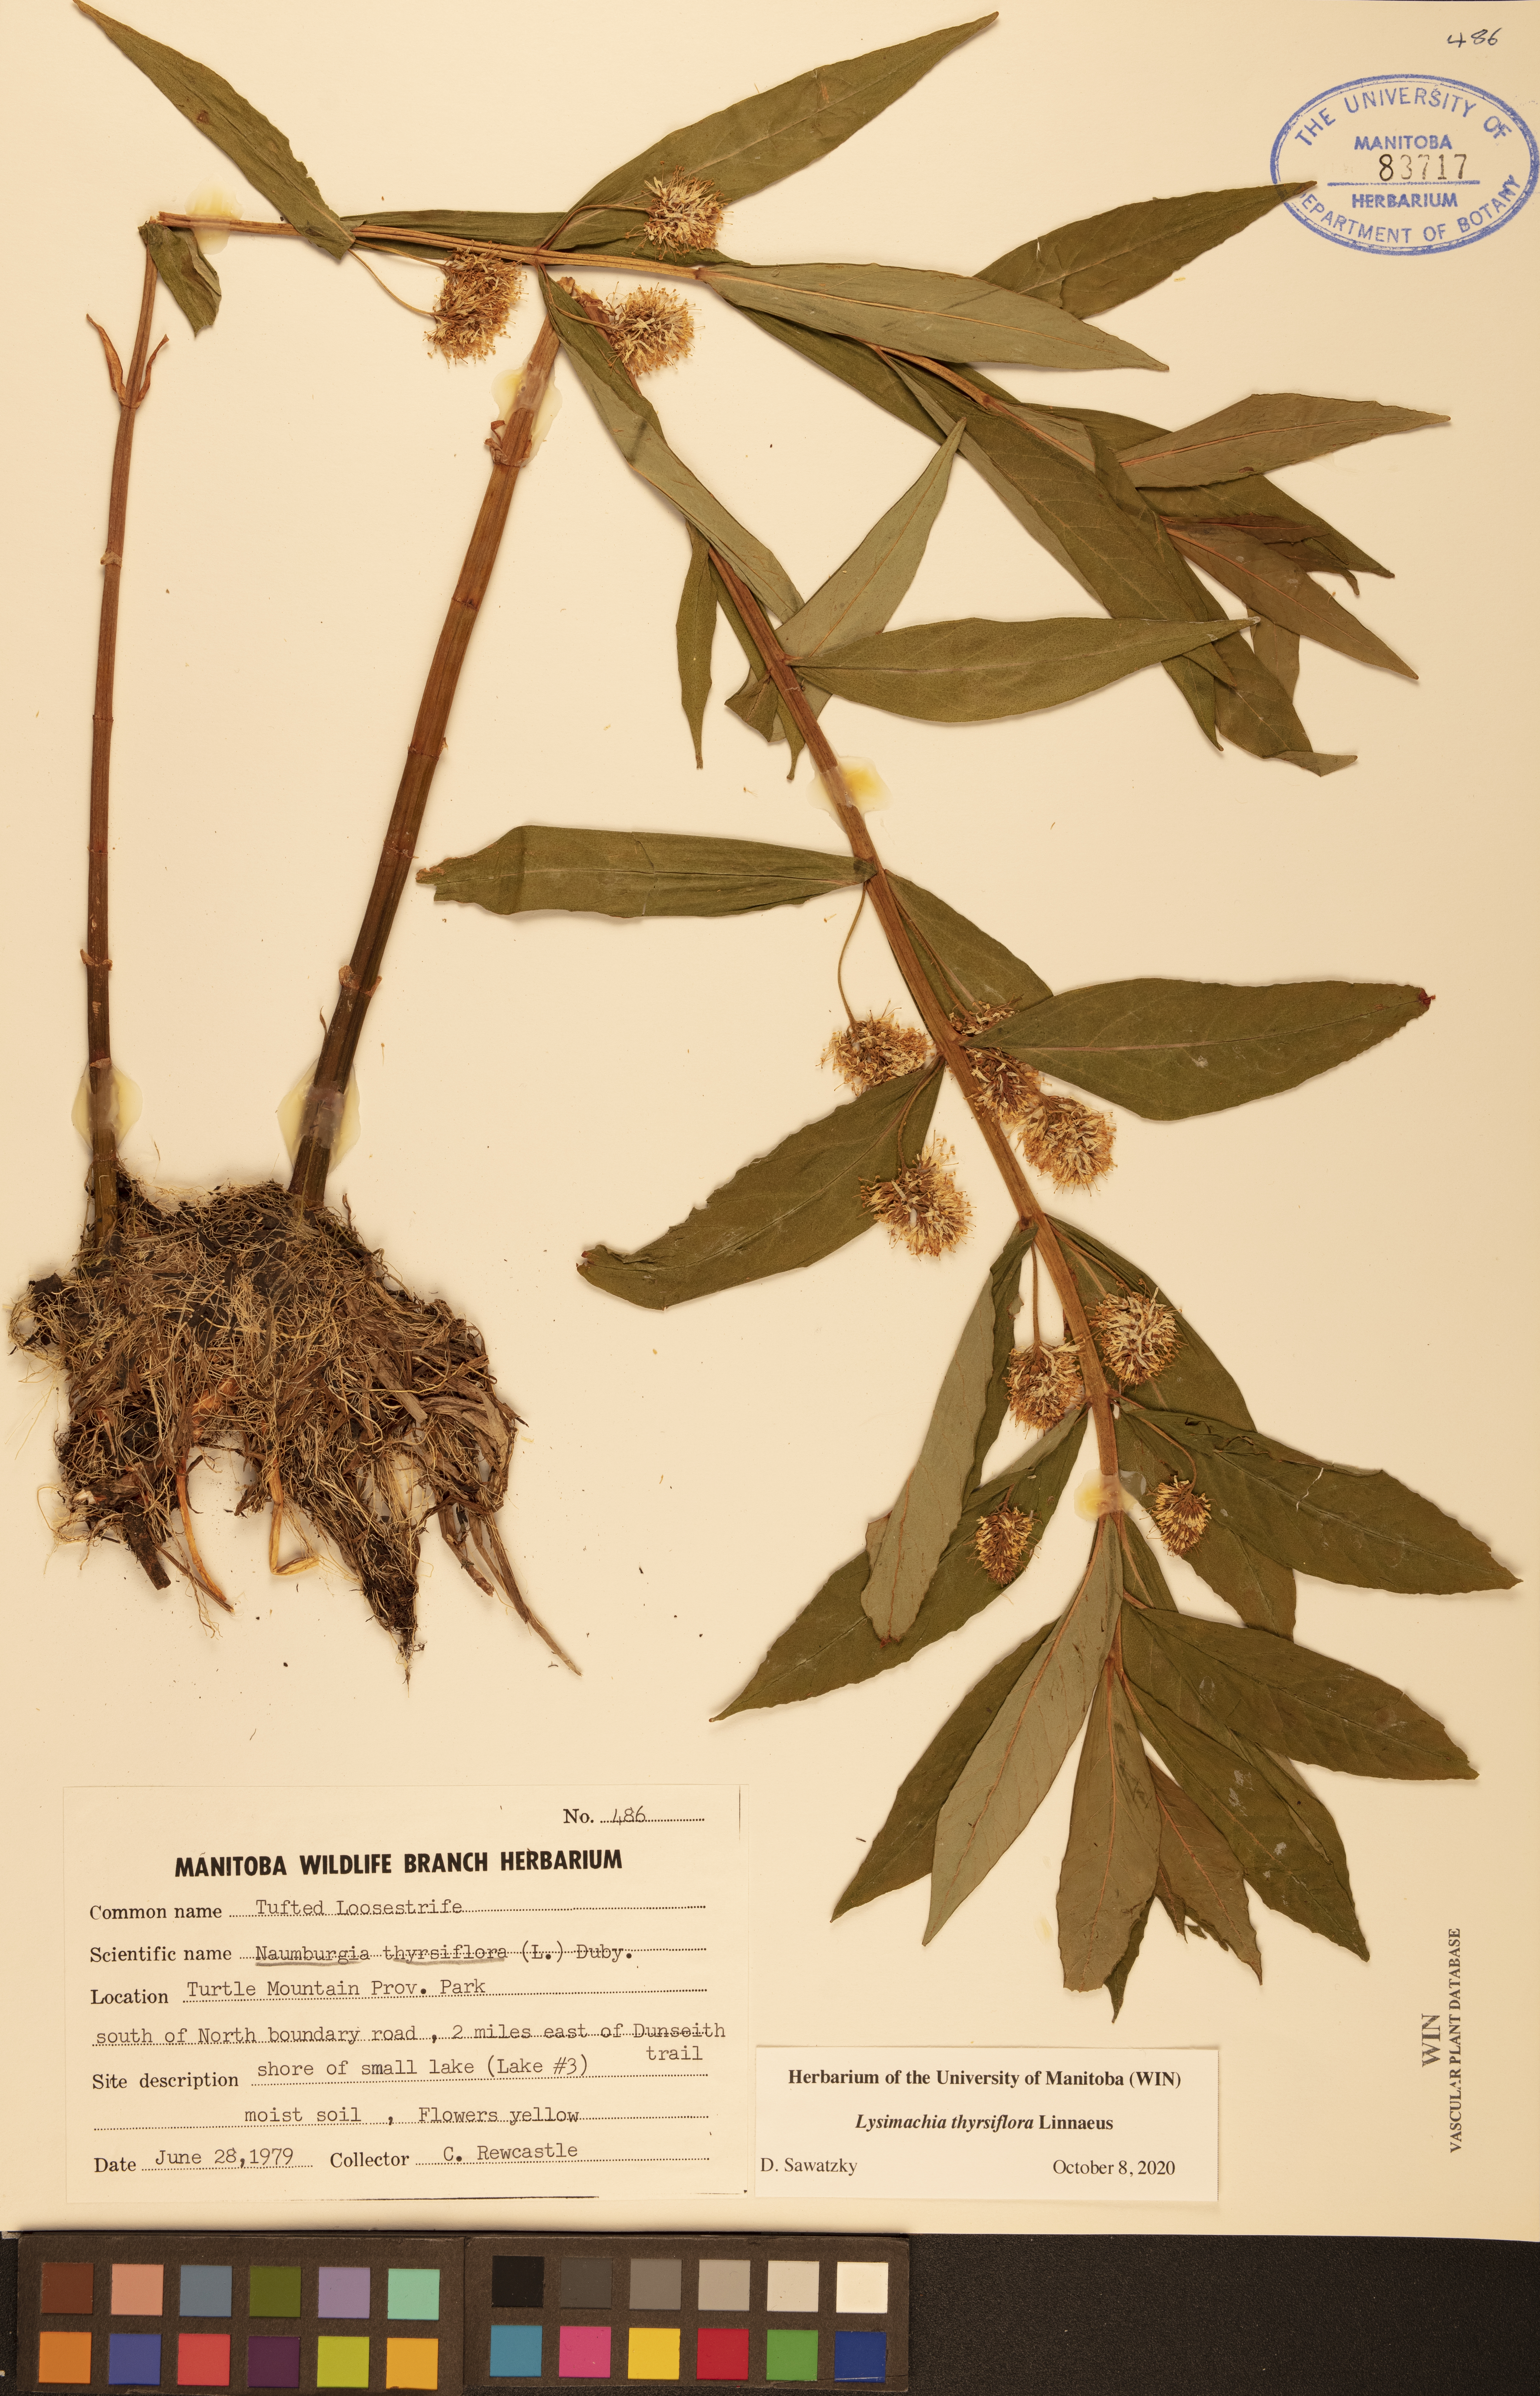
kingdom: Plantae
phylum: Tracheophyta
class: Magnoliopsida
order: Ericales
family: Primulaceae
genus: Lysimachia
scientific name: Lysimachia thyrsiflora
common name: Tufted loosestrife
